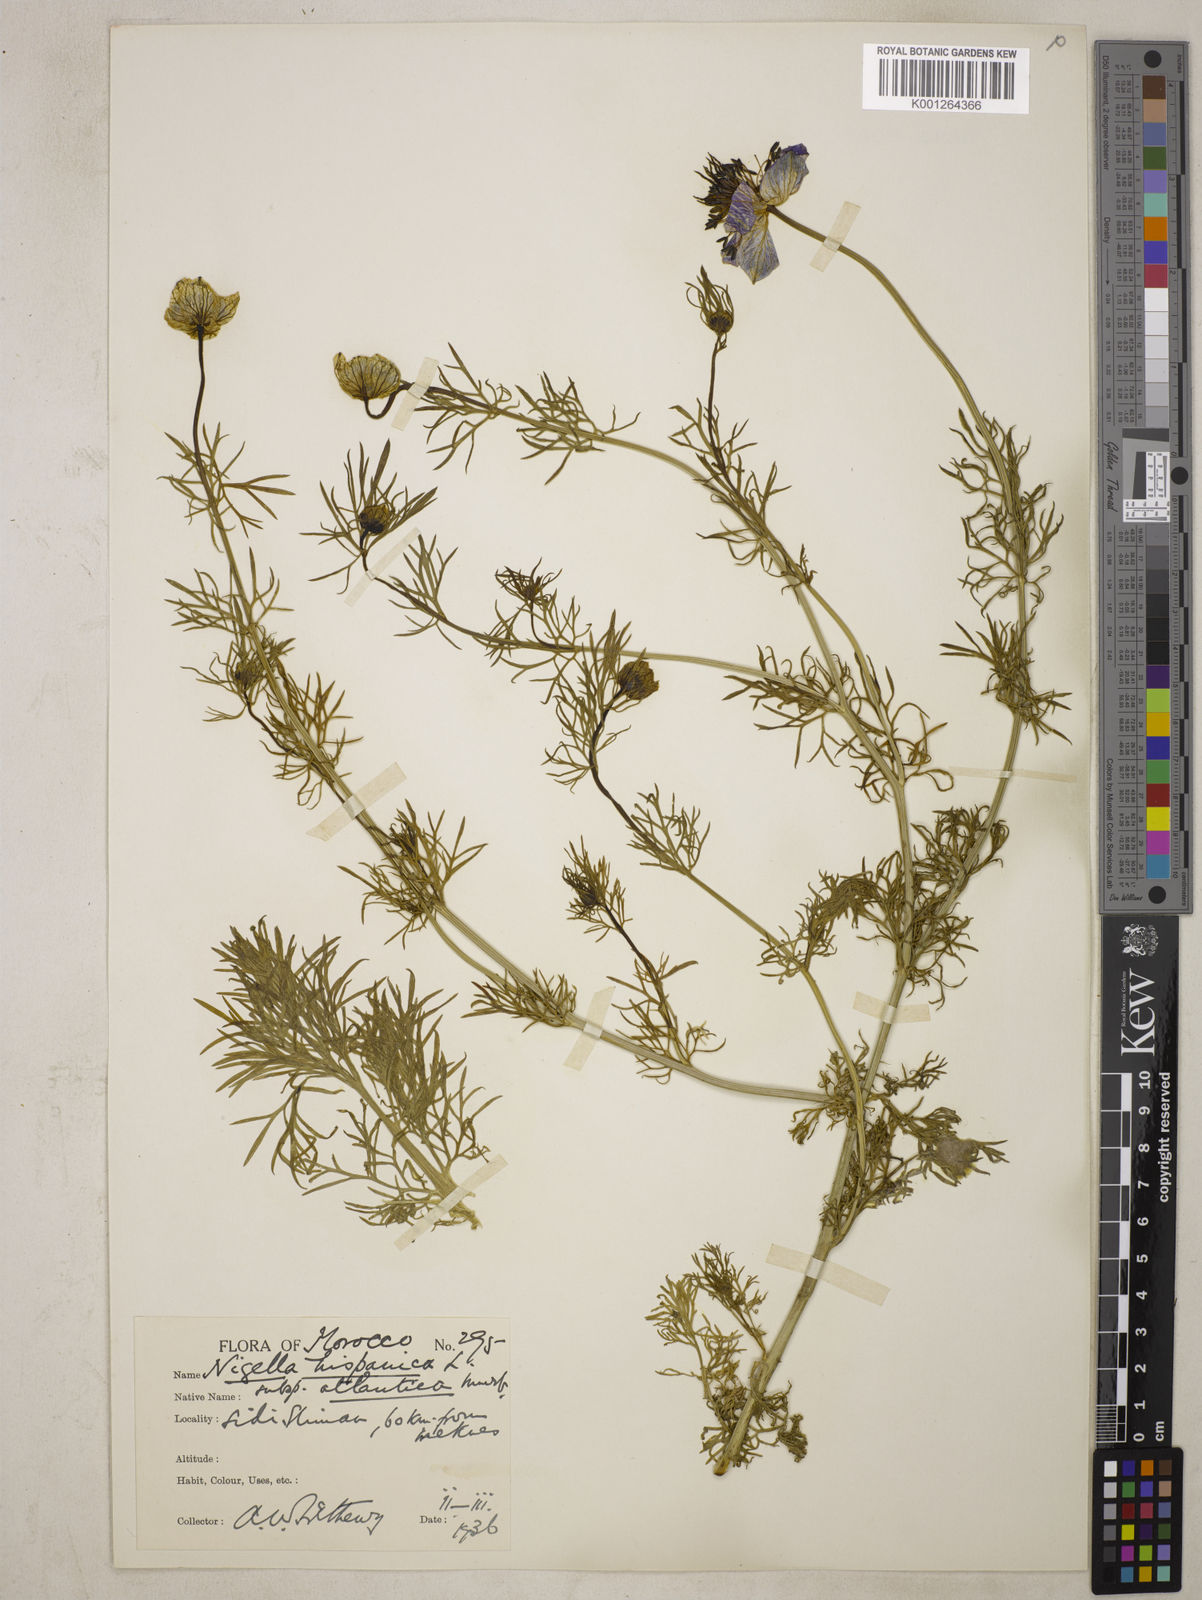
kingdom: Plantae
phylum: Tracheophyta
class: Magnoliopsida
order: Ranunculales
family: Ranunculaceae
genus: Nigella
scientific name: Nigella hispanica
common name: Fennel-flower
